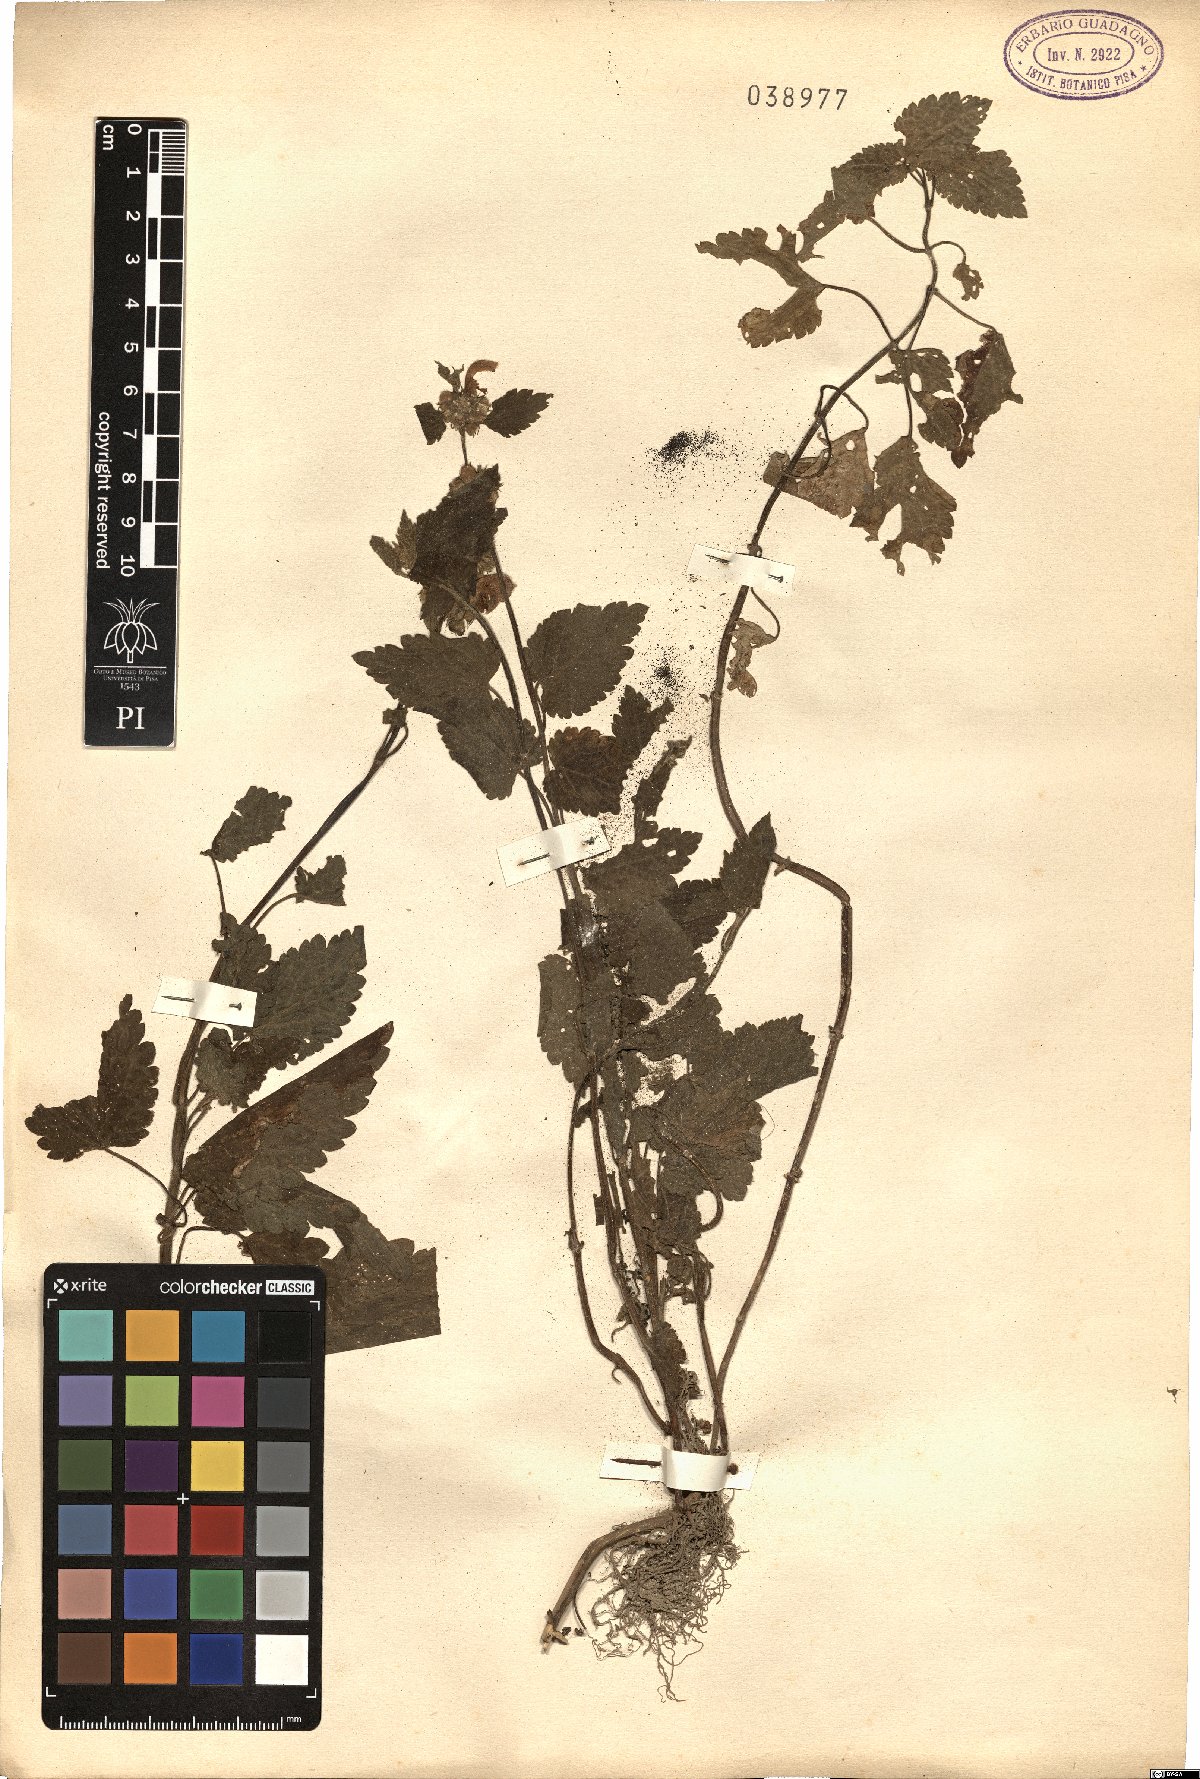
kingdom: Plantae
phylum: Tracheophyta
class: Magnoliopsida
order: Lamiales
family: Lamiaceae
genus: Lamium
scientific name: Lamium
